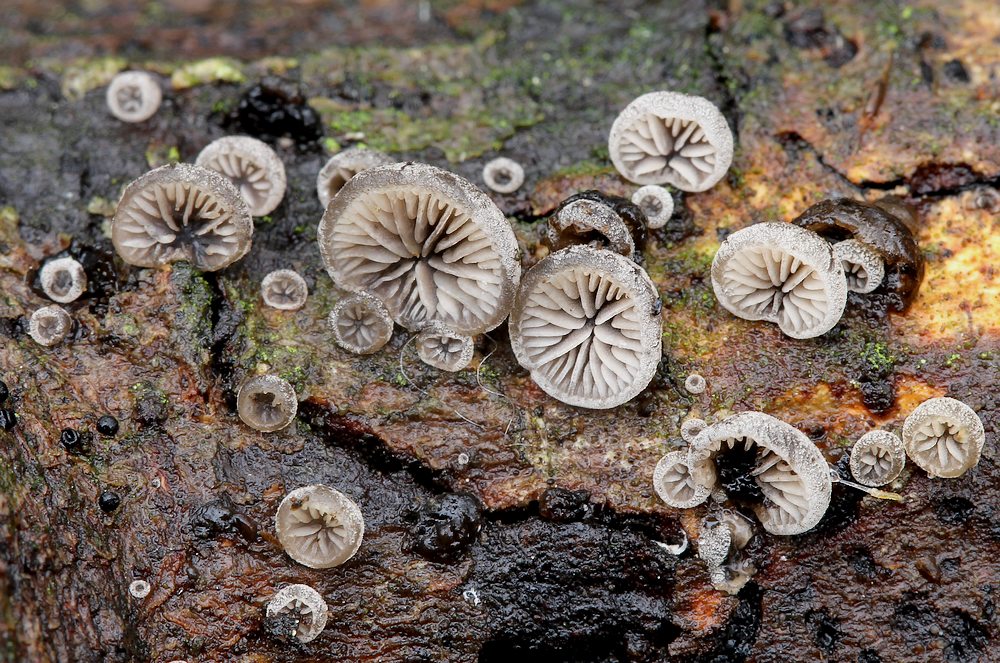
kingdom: Fungi
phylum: Basidiomycota
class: Agaricomycetes
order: Agaricales
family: Pleurotaceae
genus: Resupinatus
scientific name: Resupinatus applicatus
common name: lysfiltet barkhat
